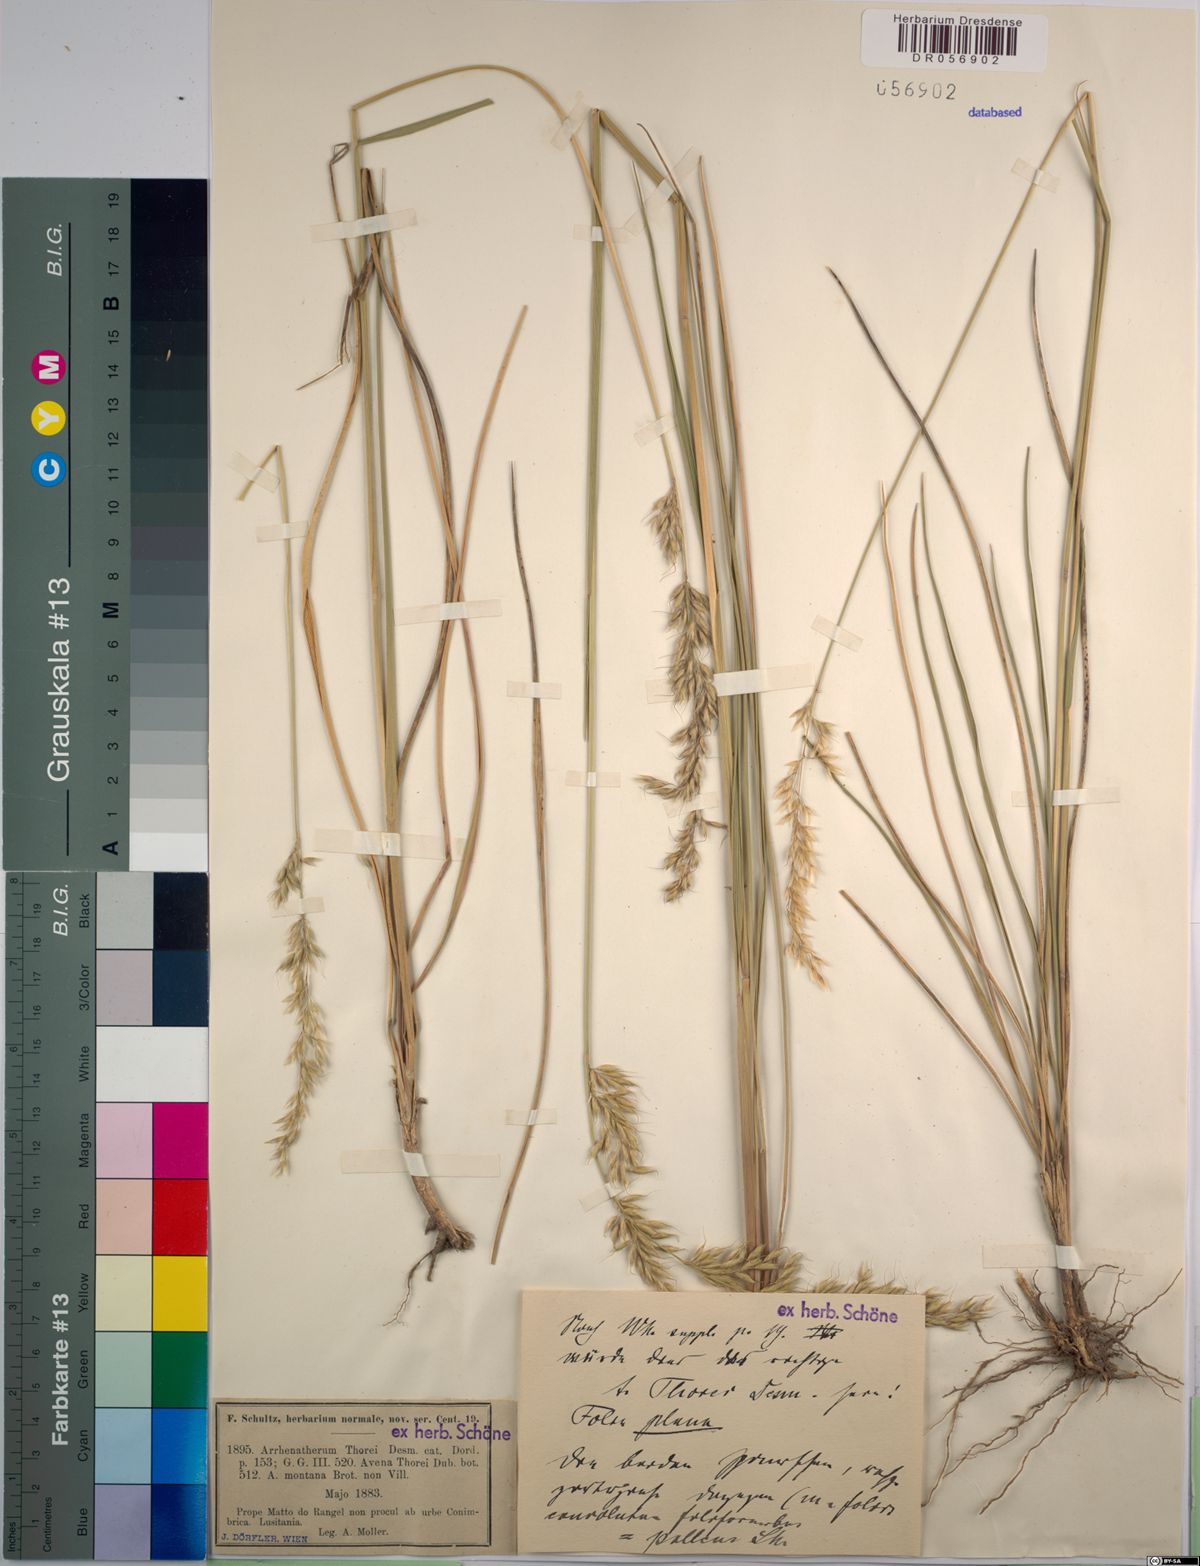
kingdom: Plantae
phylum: Tracheophyta
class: Liliopsida
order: Poales
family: Poaceae
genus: Arrhenatherum
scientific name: Arrhenatherum longifolium
